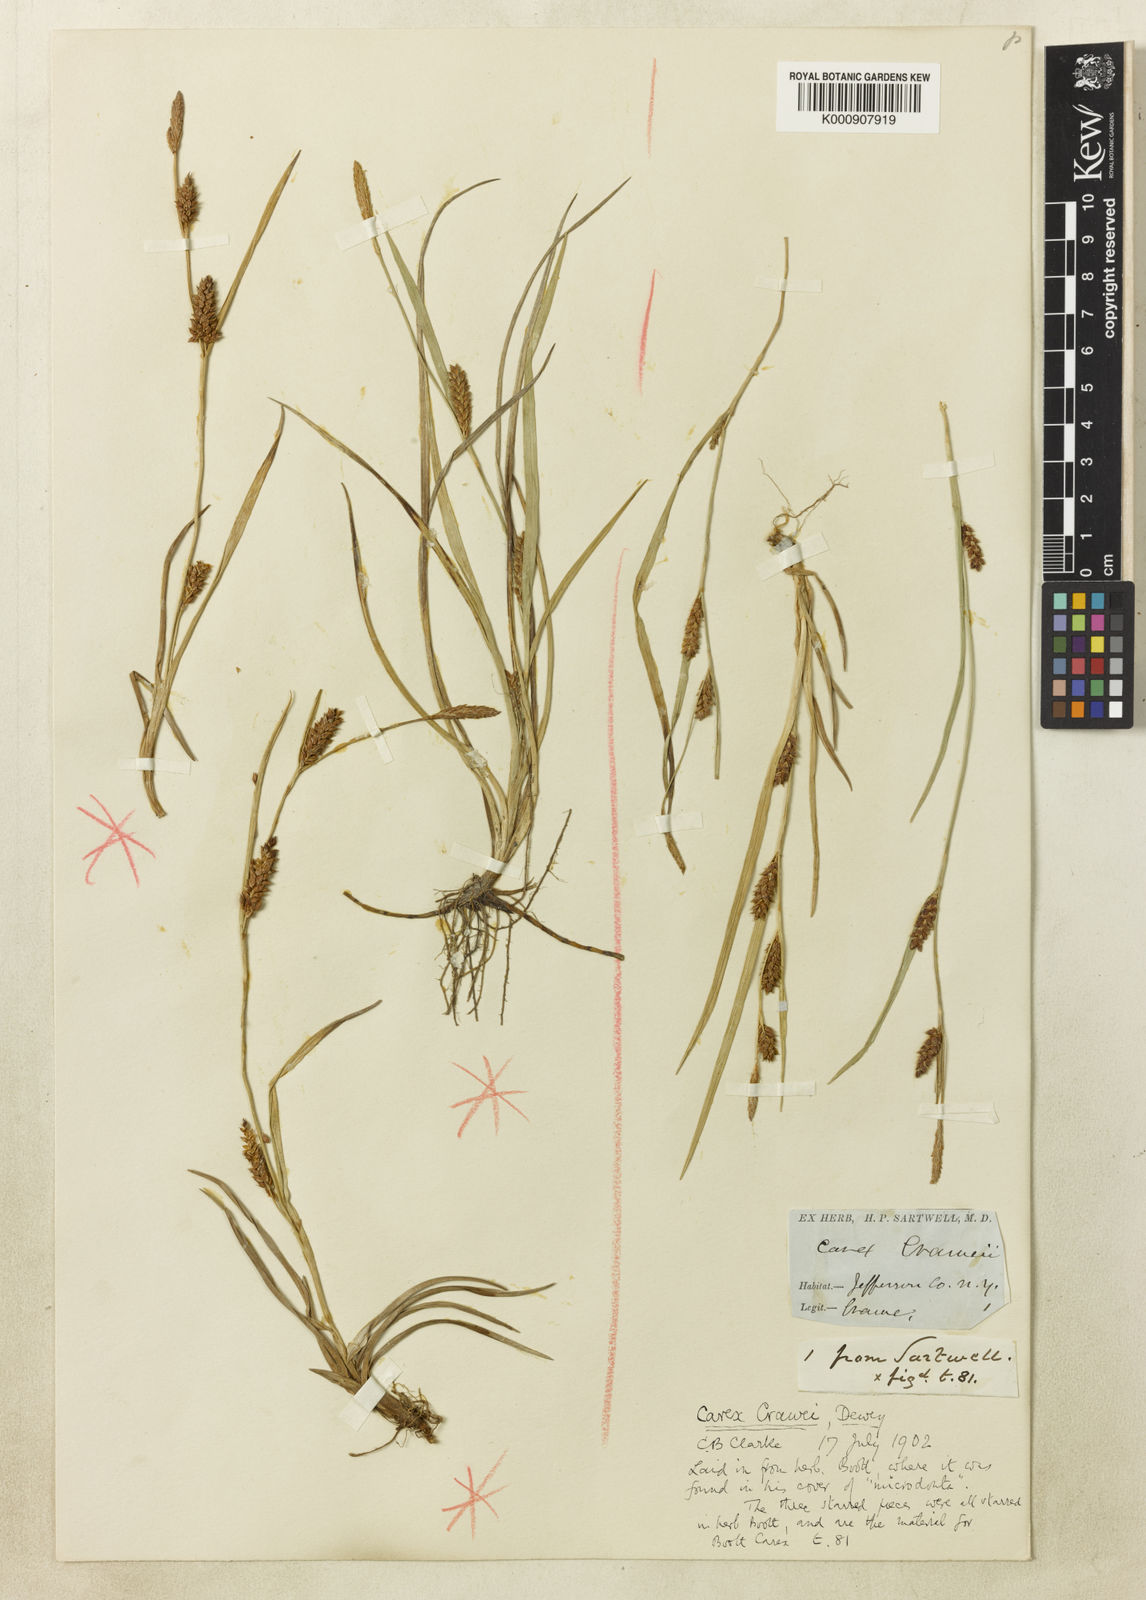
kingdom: Plantae
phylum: Tracheophyta
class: Liliopsida
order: Poales
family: Cyperaceae
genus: Carex
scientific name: Carex crawei
